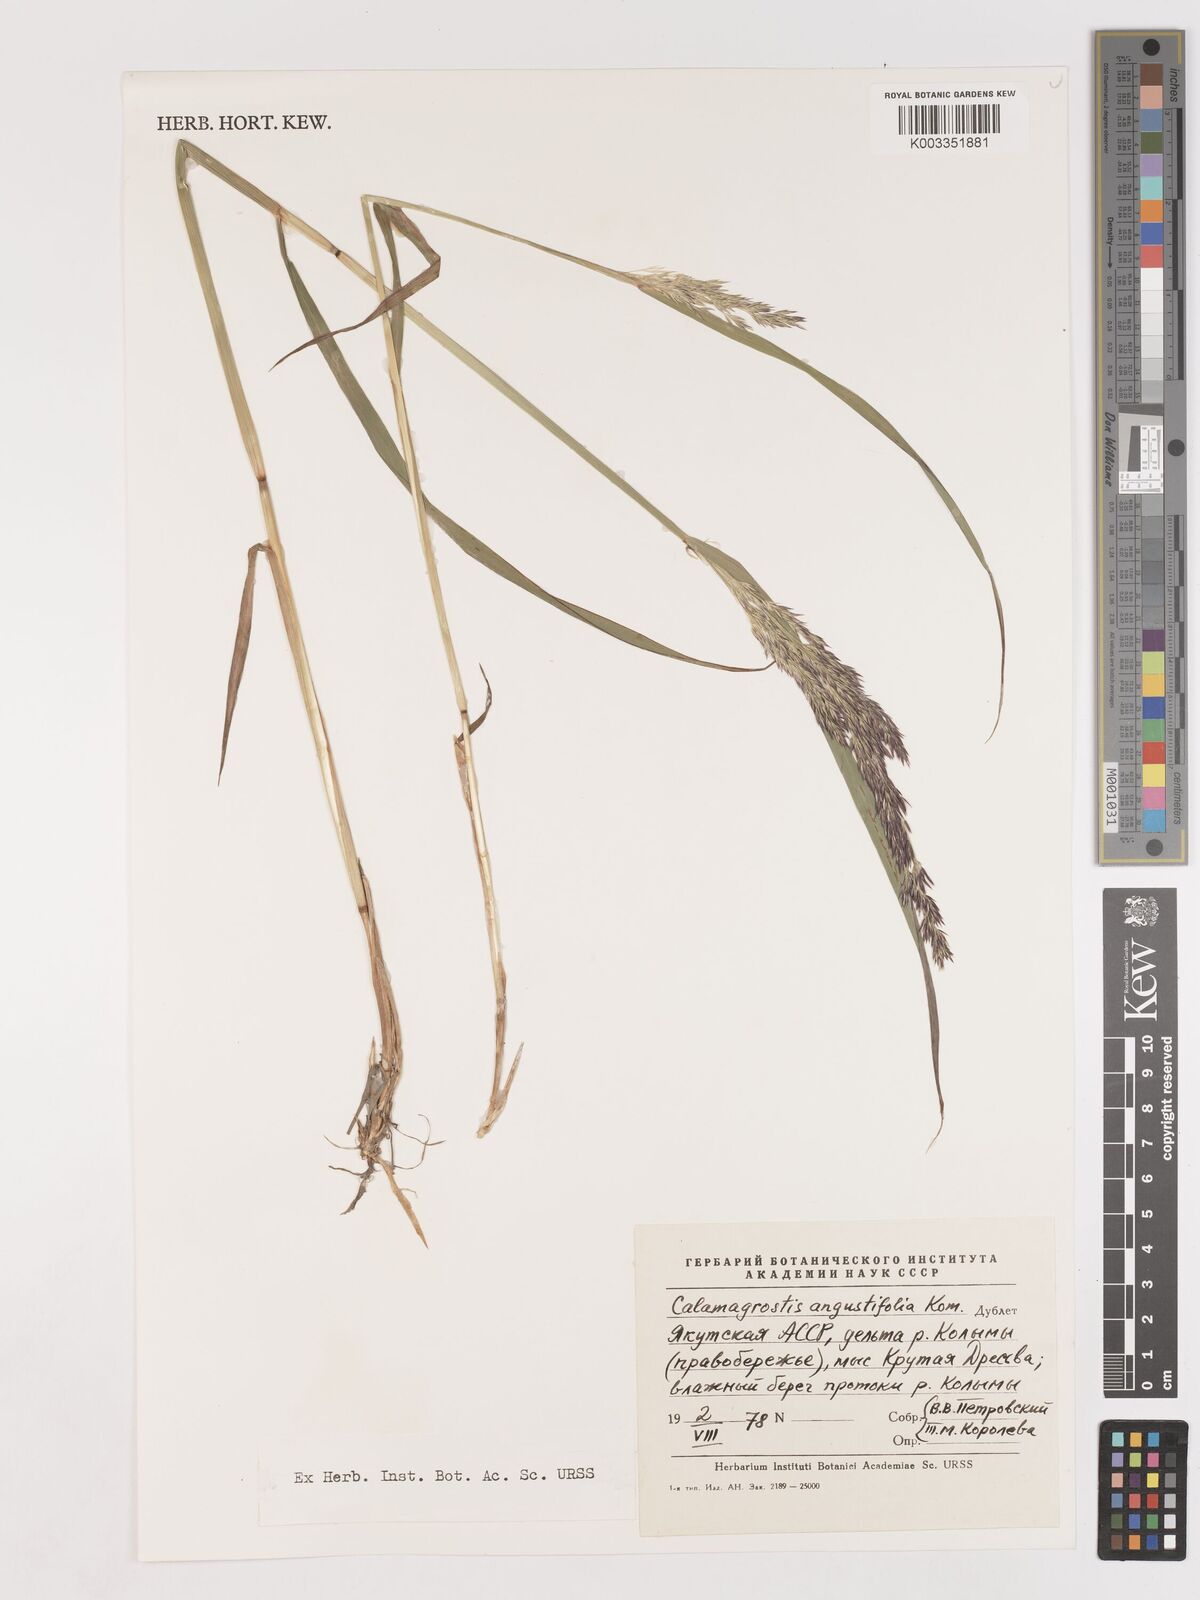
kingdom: Plantae
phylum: Tracheophyta
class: Liliopsida
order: Poales
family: Poaceae
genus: Calamagrostis
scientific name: Calamagrostis angustifolia
